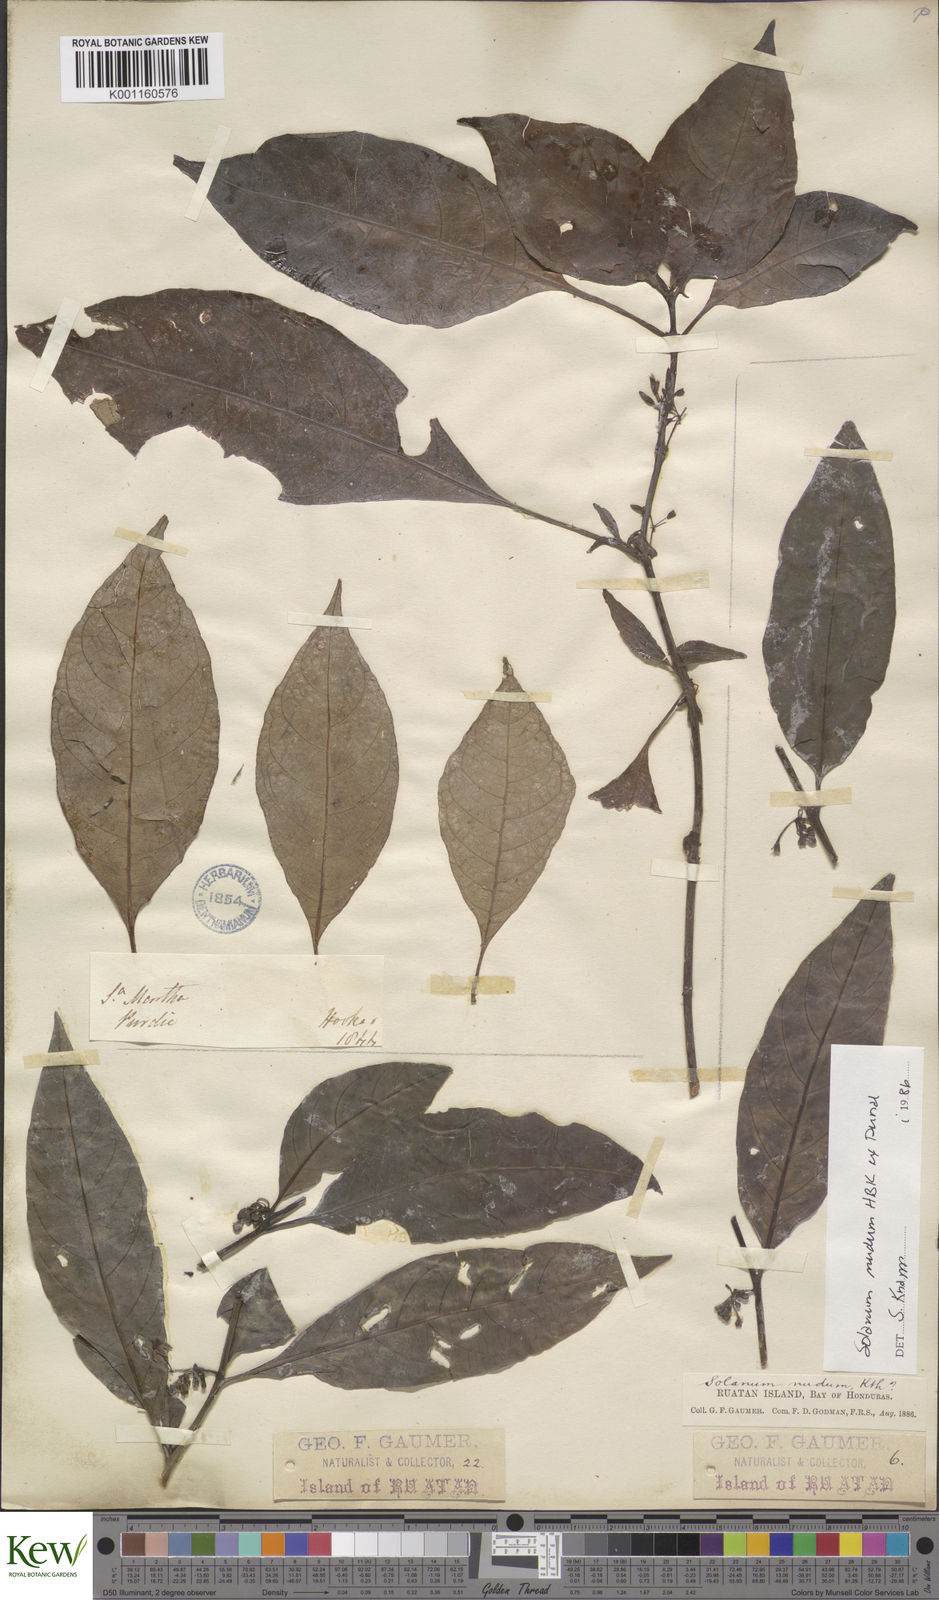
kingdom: Plantae
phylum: Tracheophyta
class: Magnoliopsida
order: Solanales
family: Solanaceae
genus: Solanum
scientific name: Solanum nudum
